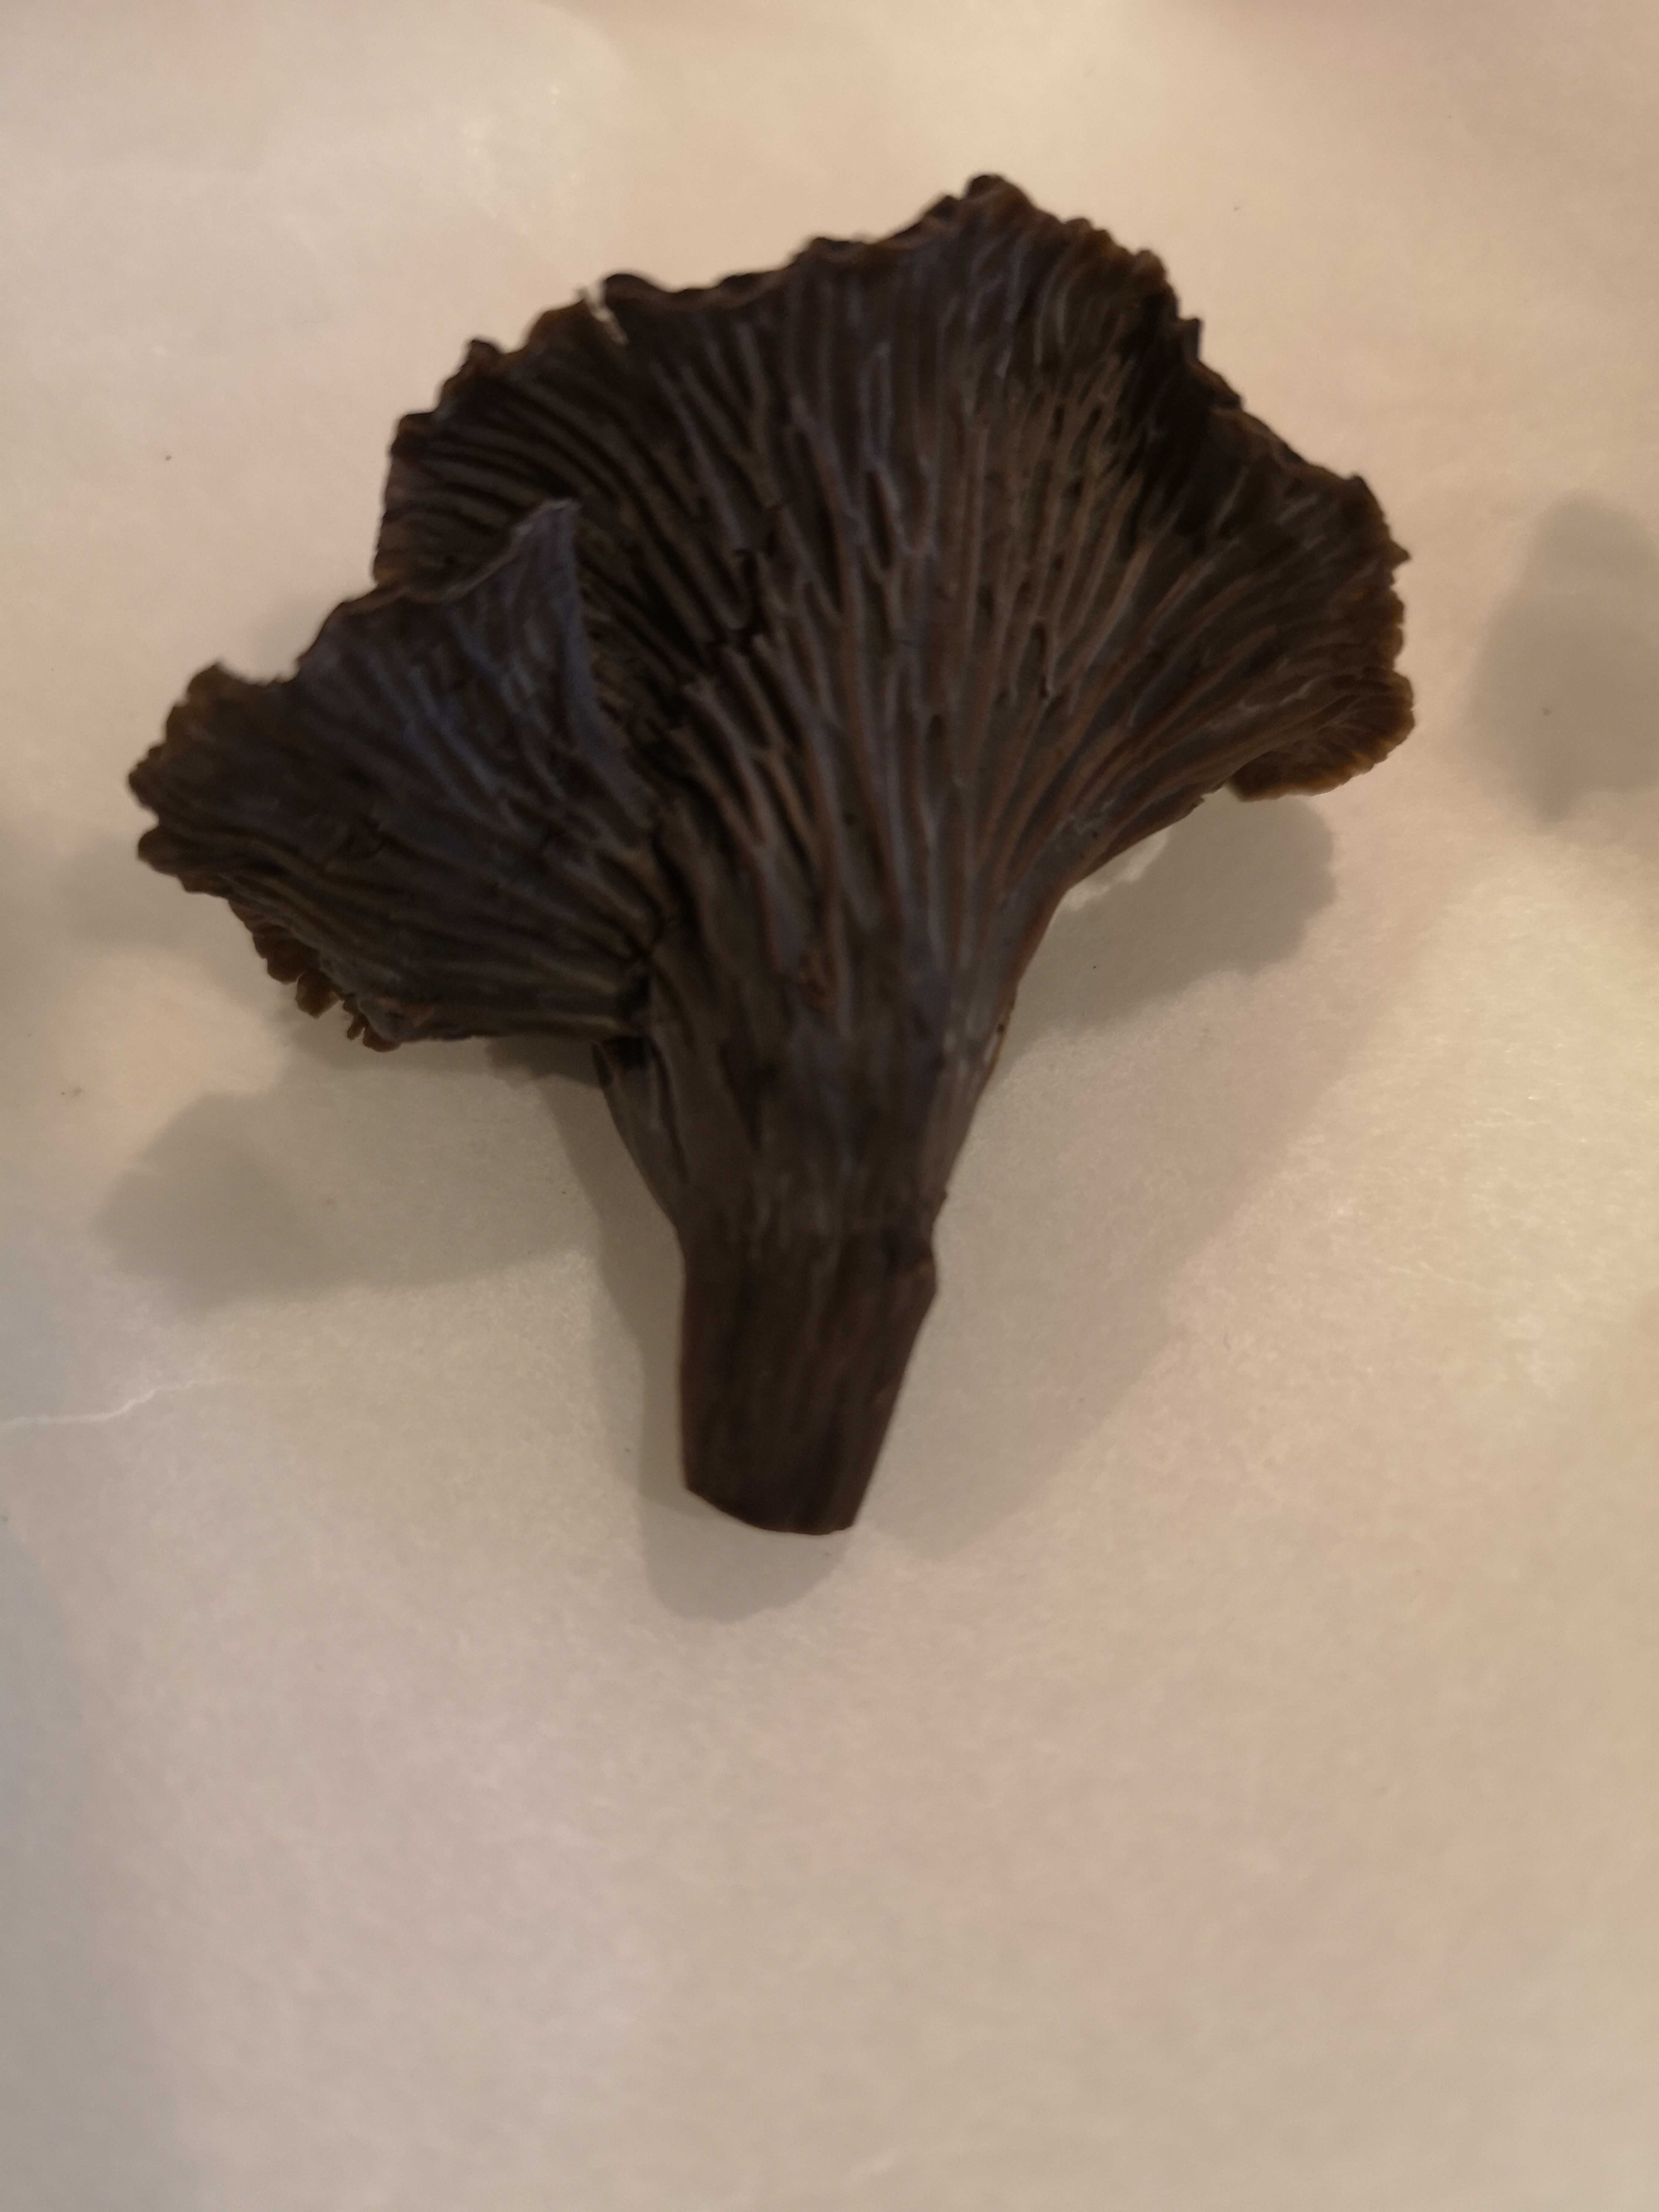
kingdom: Fungi
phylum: Basidiomycota
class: Agaricomycetes
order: Cantharellales
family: Hydnaceae
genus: Cantharellus
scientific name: Cantharellus cinereus
